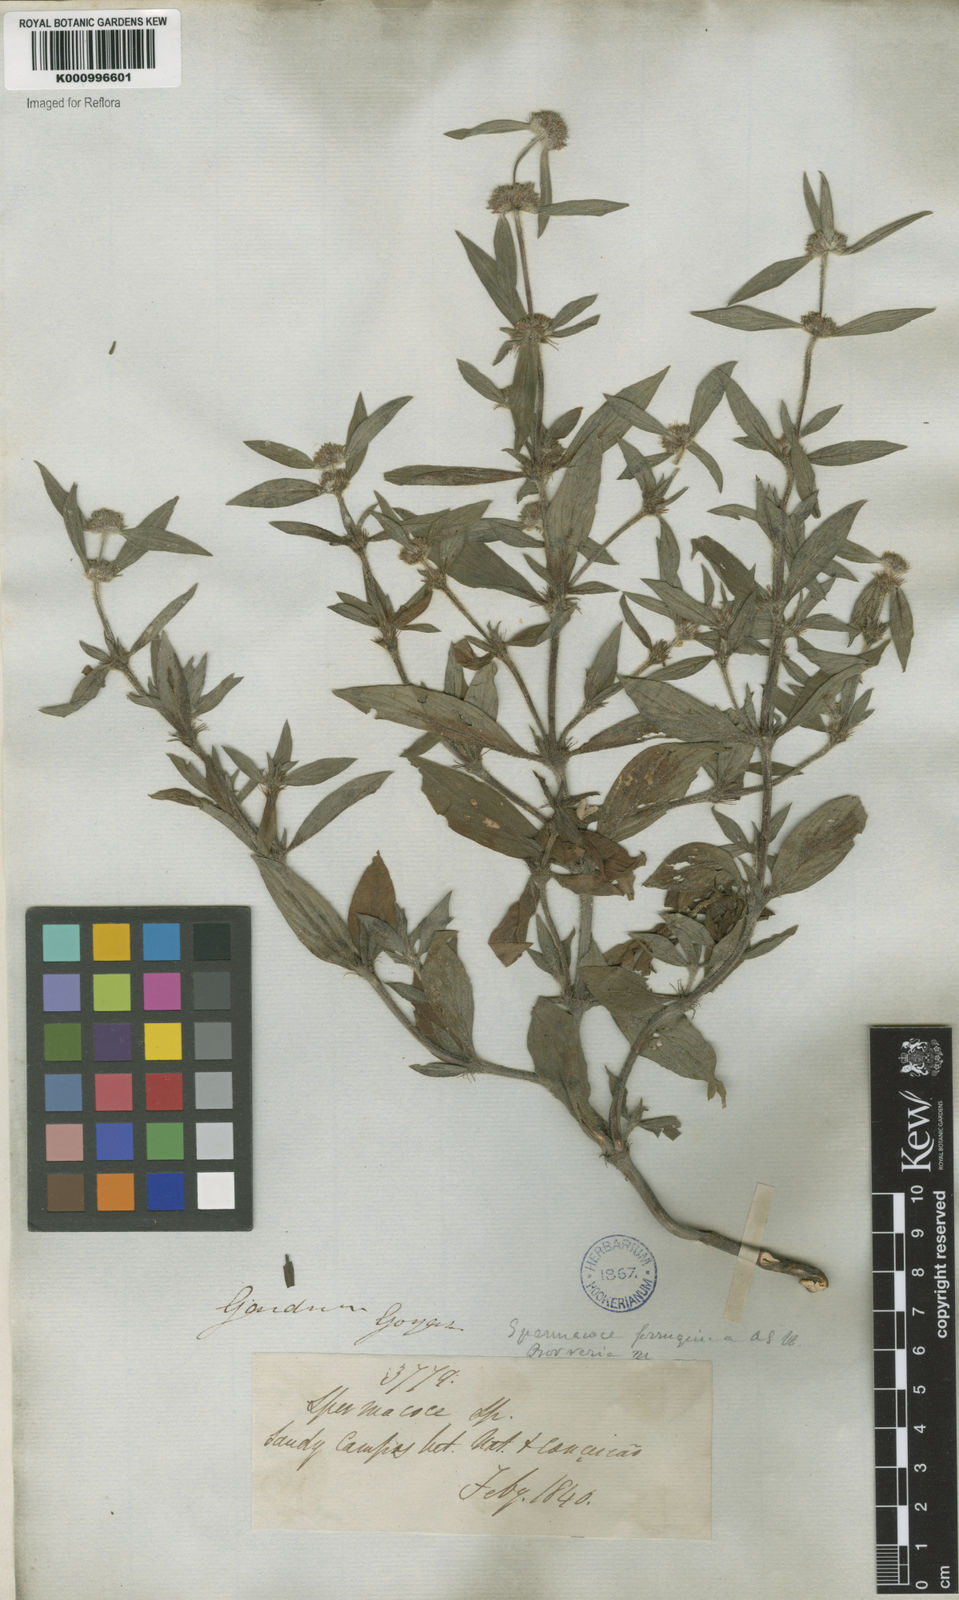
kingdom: Plantae
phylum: Tracheophyta
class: Magnoliopsida
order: Gentianales
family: Rubiaceae
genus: Spermacoce
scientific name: Spermacoce
